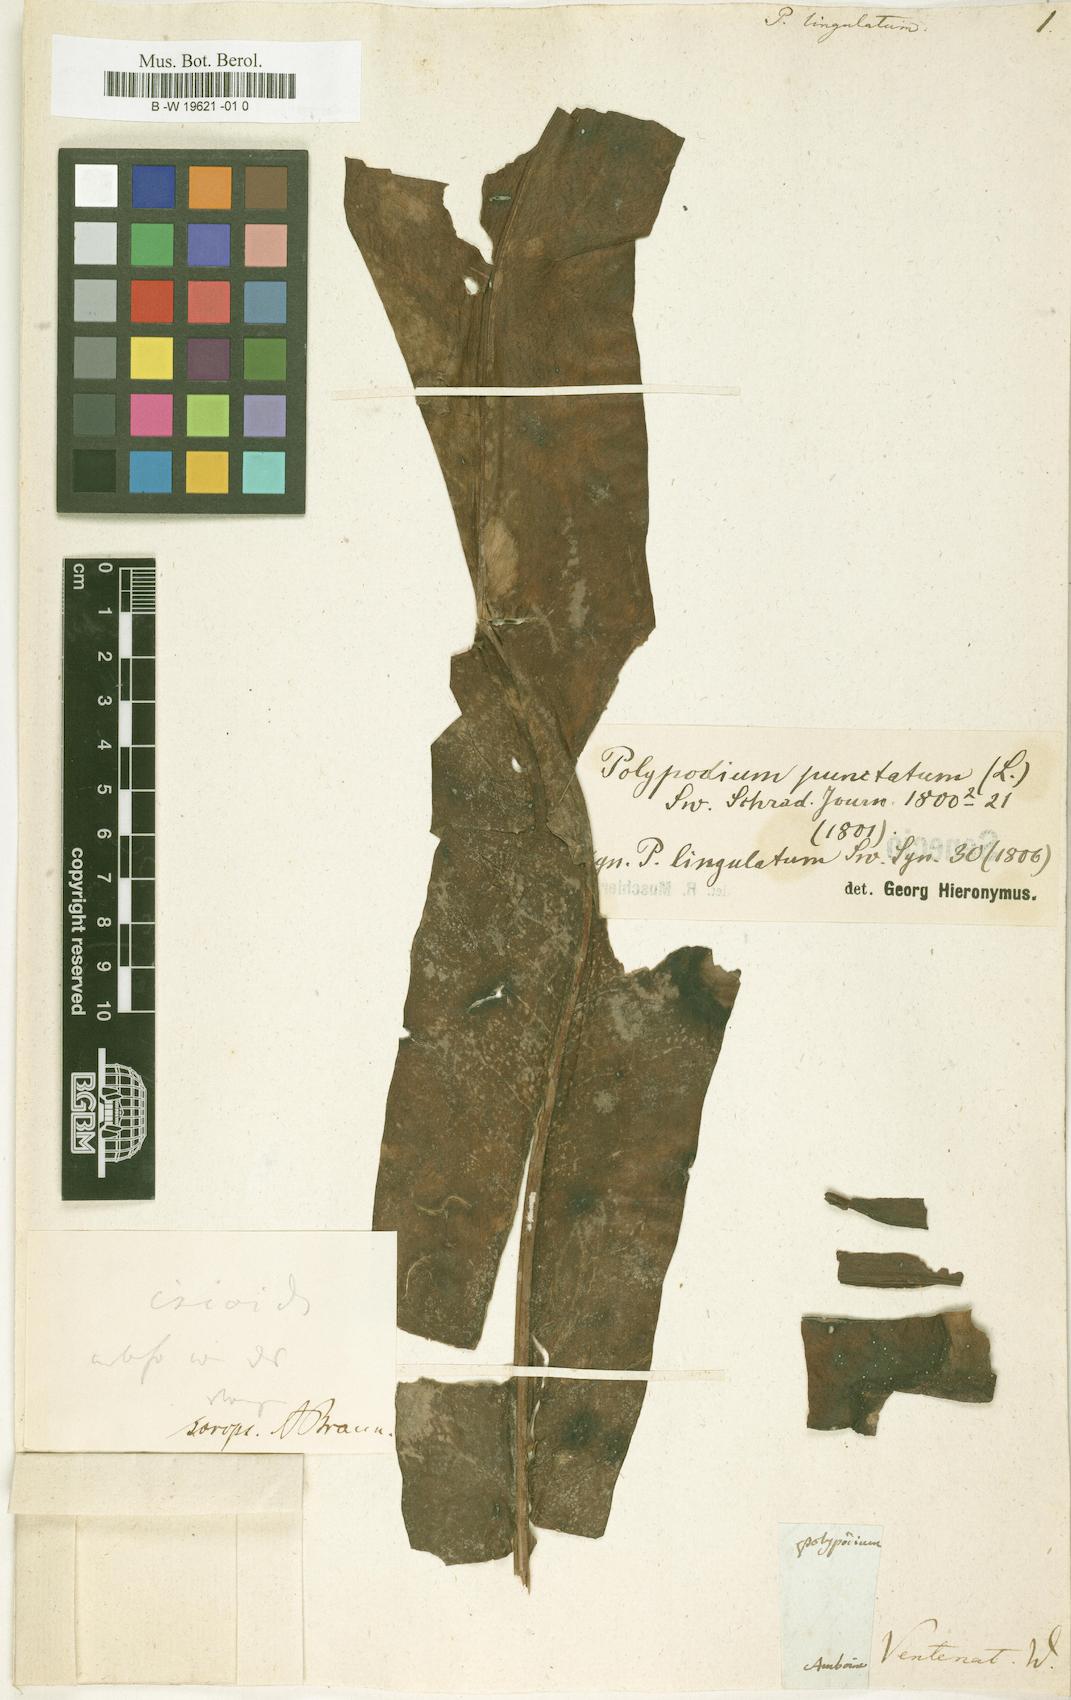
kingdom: Plantae
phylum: Tracheophyta
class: Polypodiopsida
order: Polypodiales
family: Polypodiaceae
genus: Microsorum
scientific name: Microsorum punctatum
